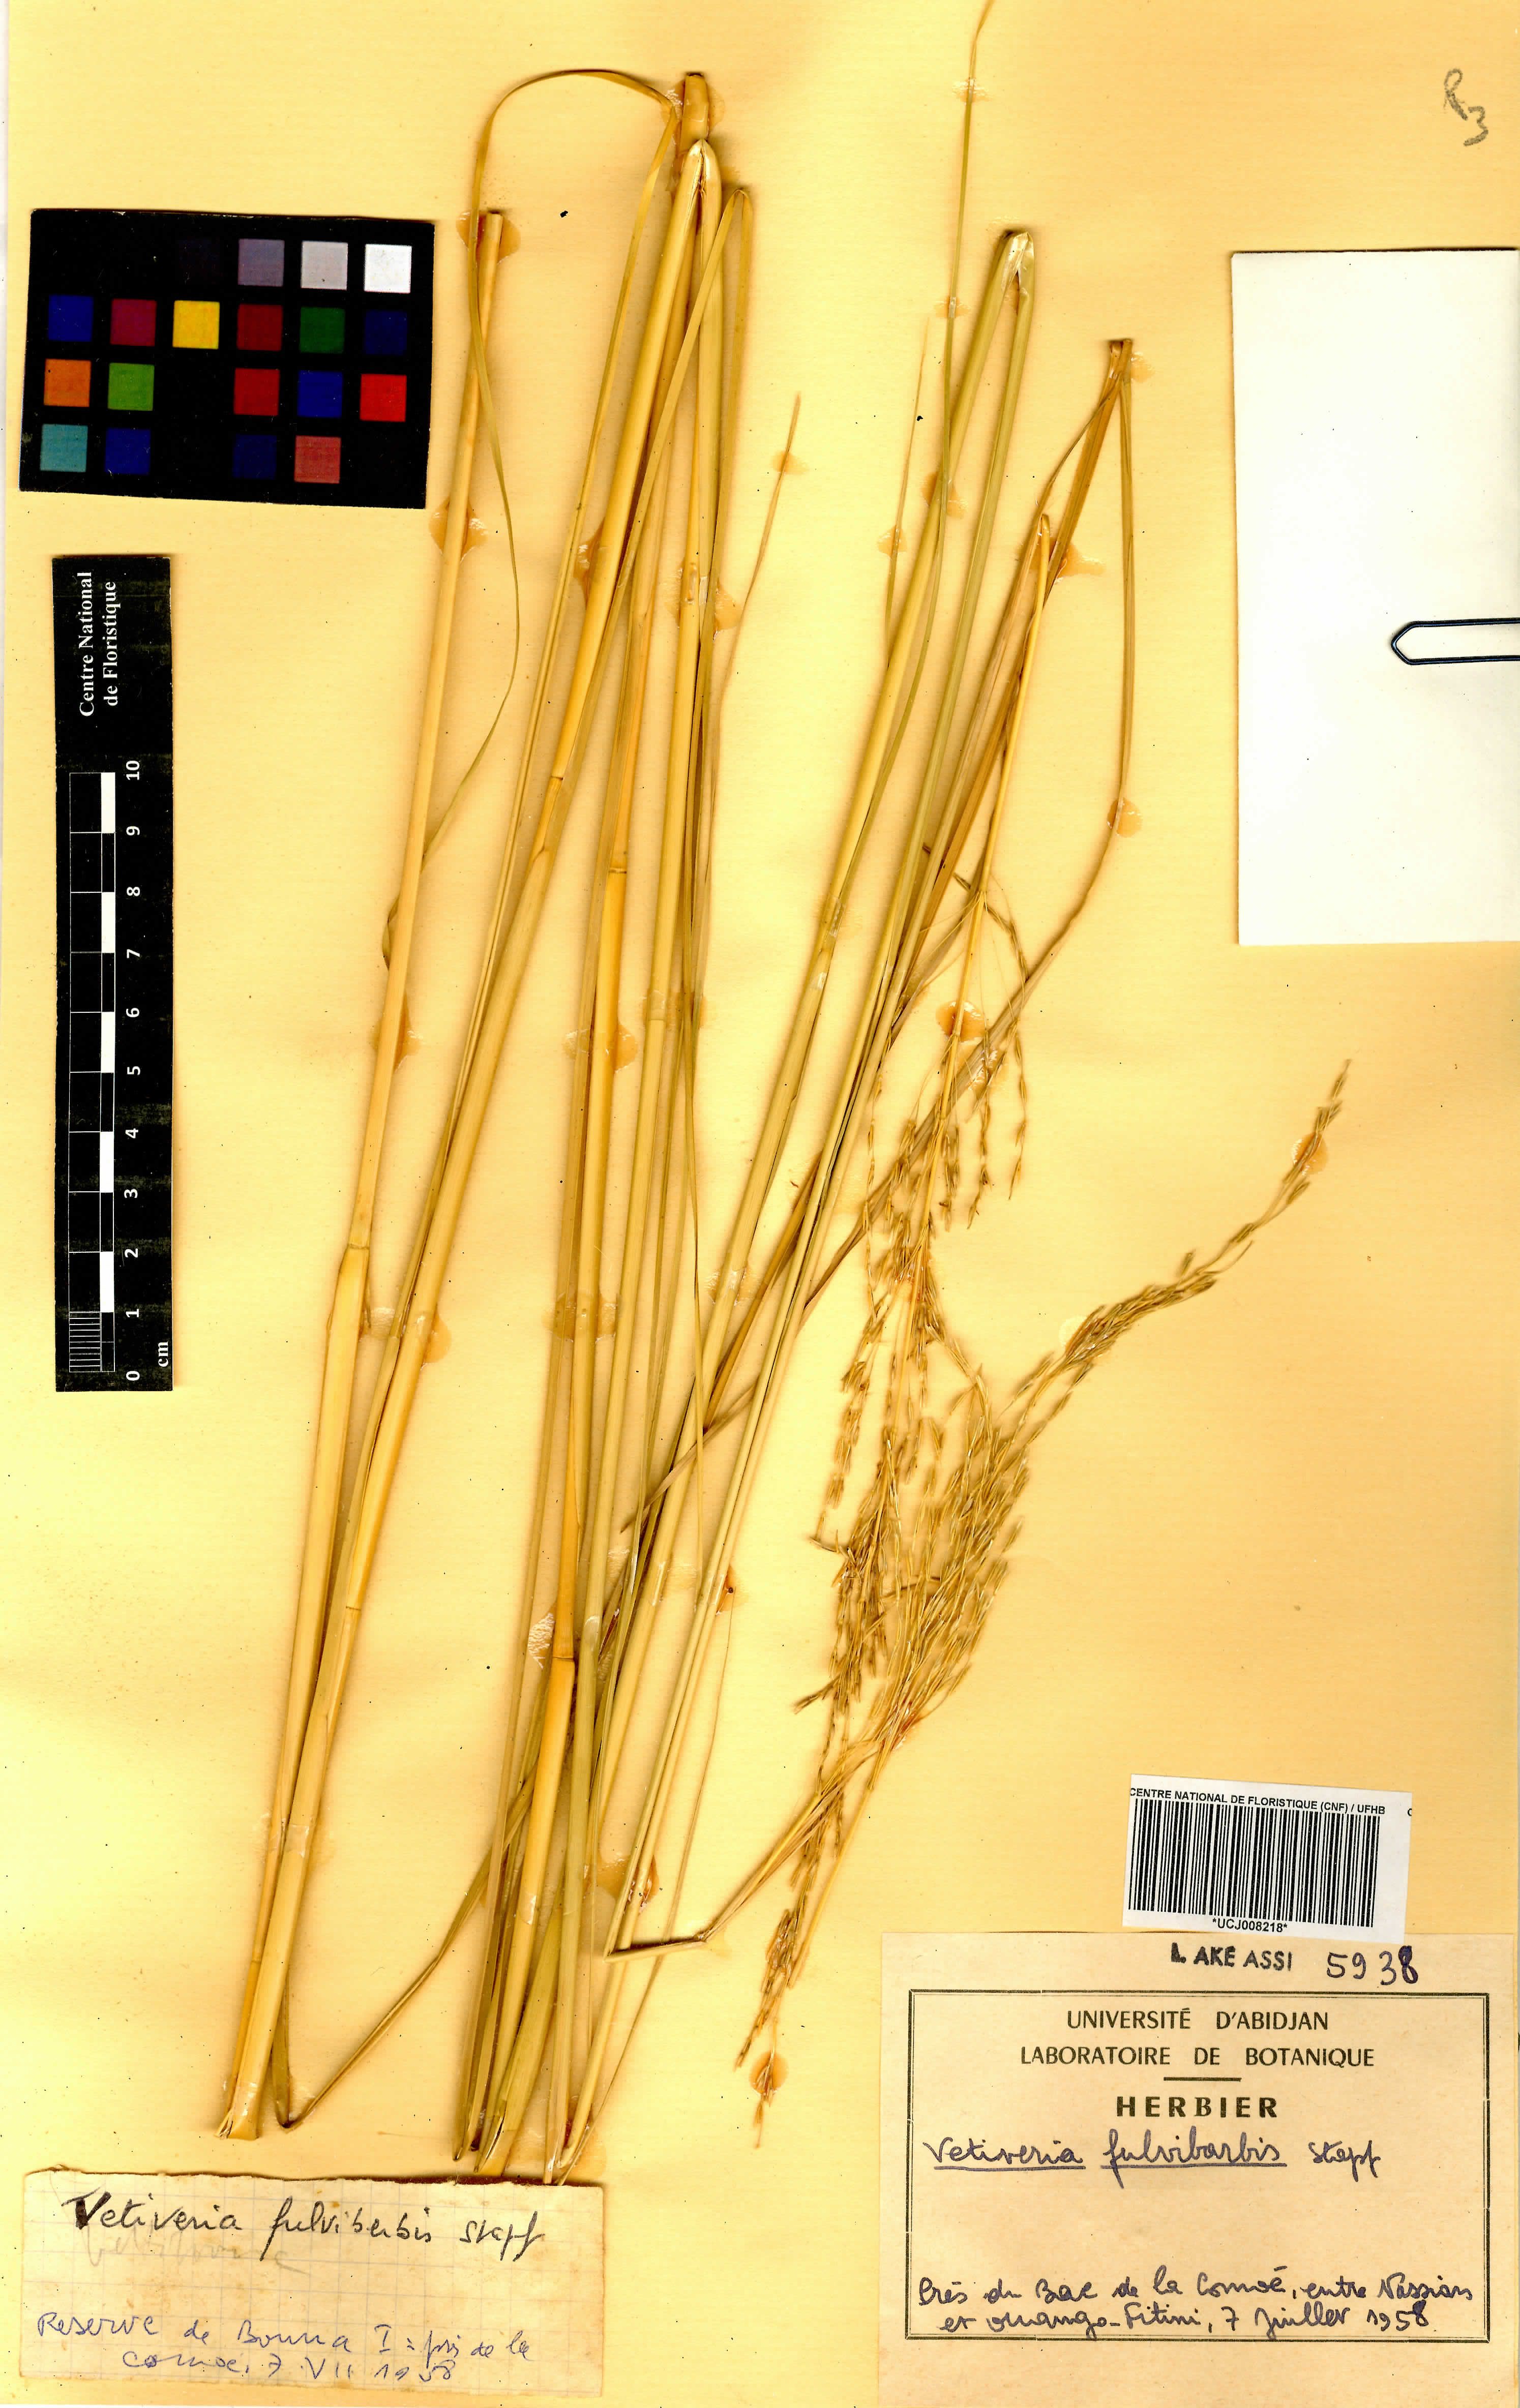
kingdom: Plantae
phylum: Tracheophyta
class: Liliopsida
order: Poales
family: Poaceae
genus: Chrysopogon
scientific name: Chrysopogon fulvibarbis
